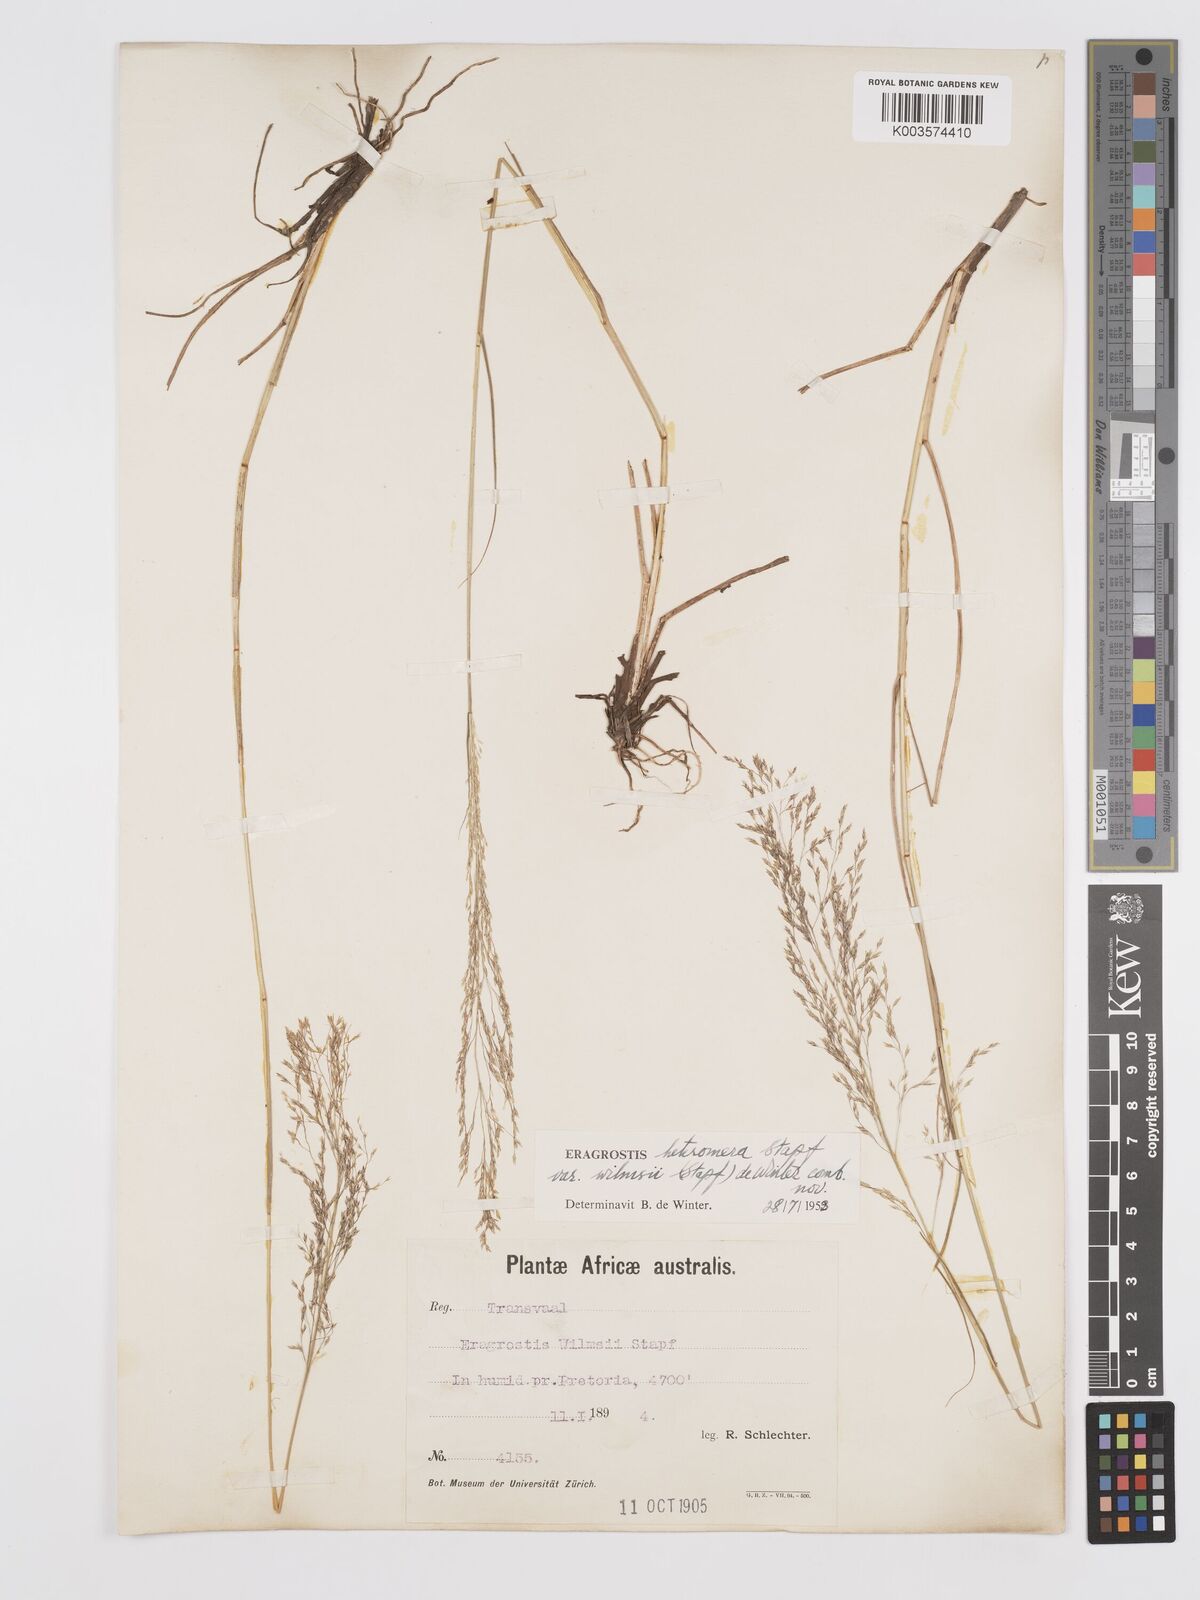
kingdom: Plantae
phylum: Tracheophyta
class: Liliopsida
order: Poales
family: Poaceae
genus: Eragrostis
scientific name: Eragrostis heteromera
